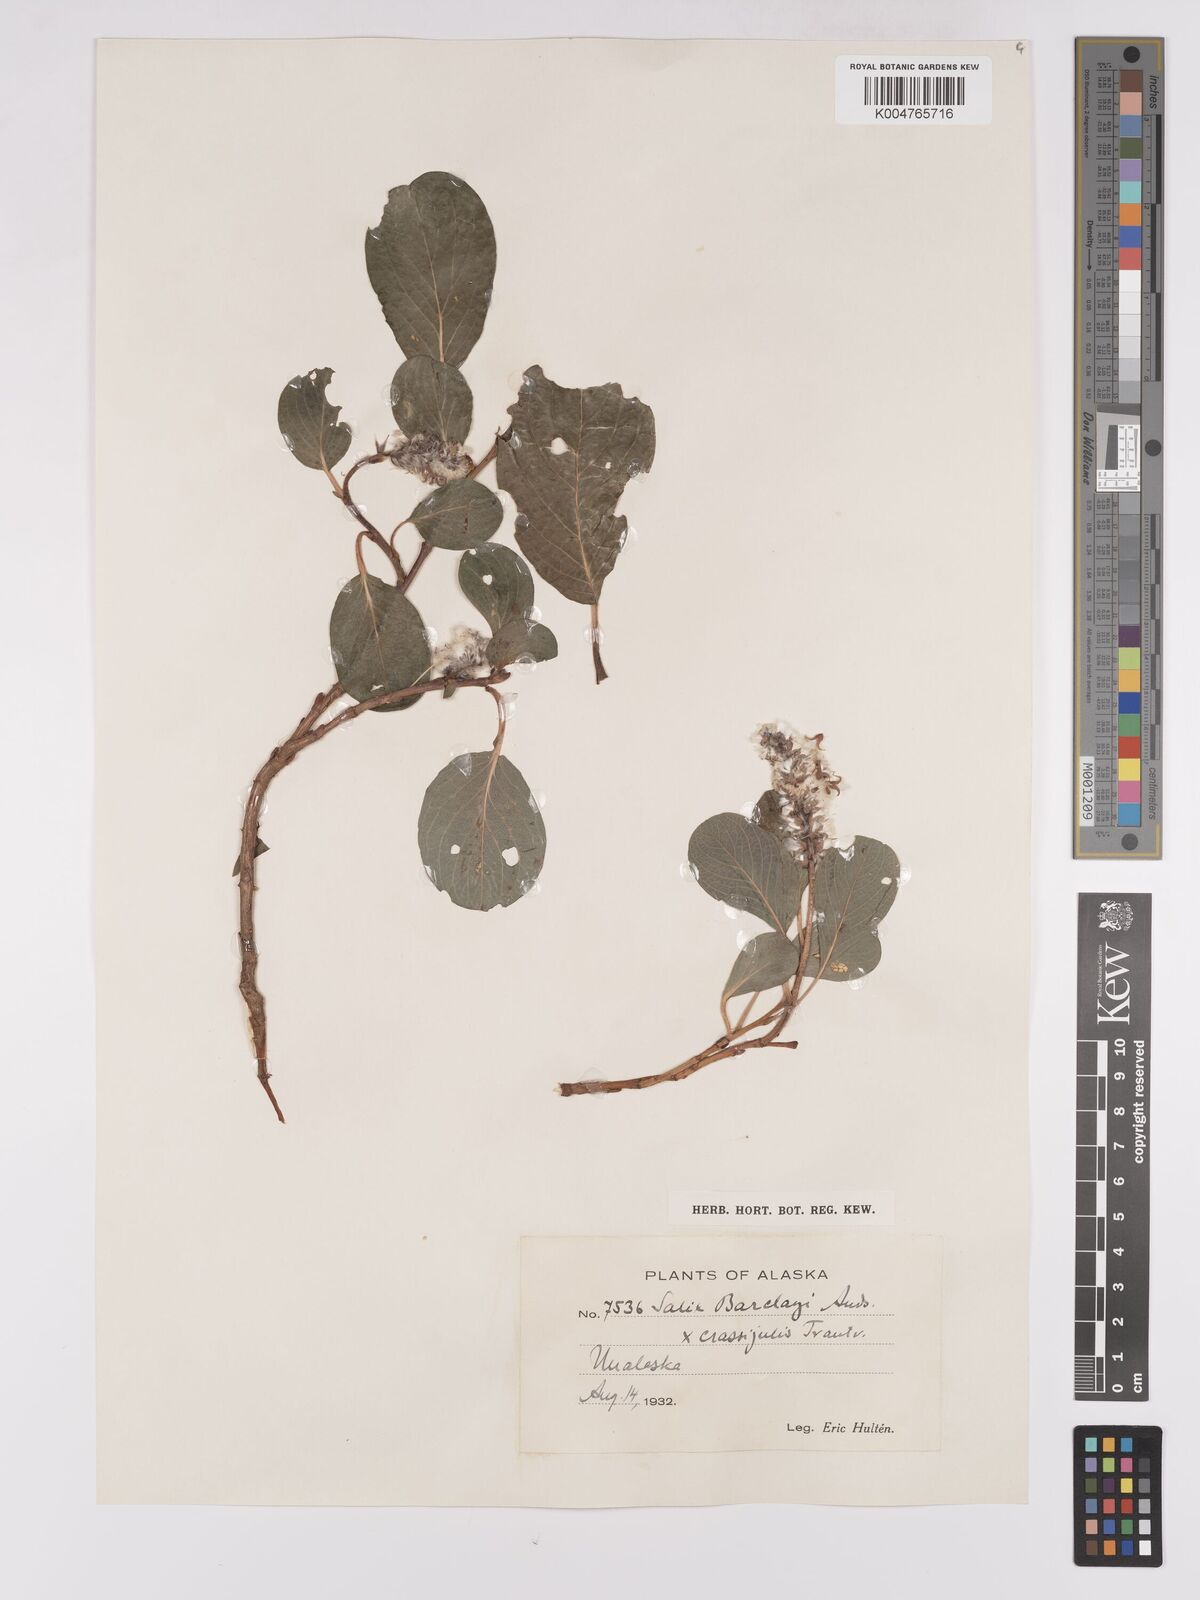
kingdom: Plantae
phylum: Tracheophyta
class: Magnoliopsida
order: Malpighiales
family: Salicaceae
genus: Salix
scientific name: Salix barclayi
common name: Mountain willow
